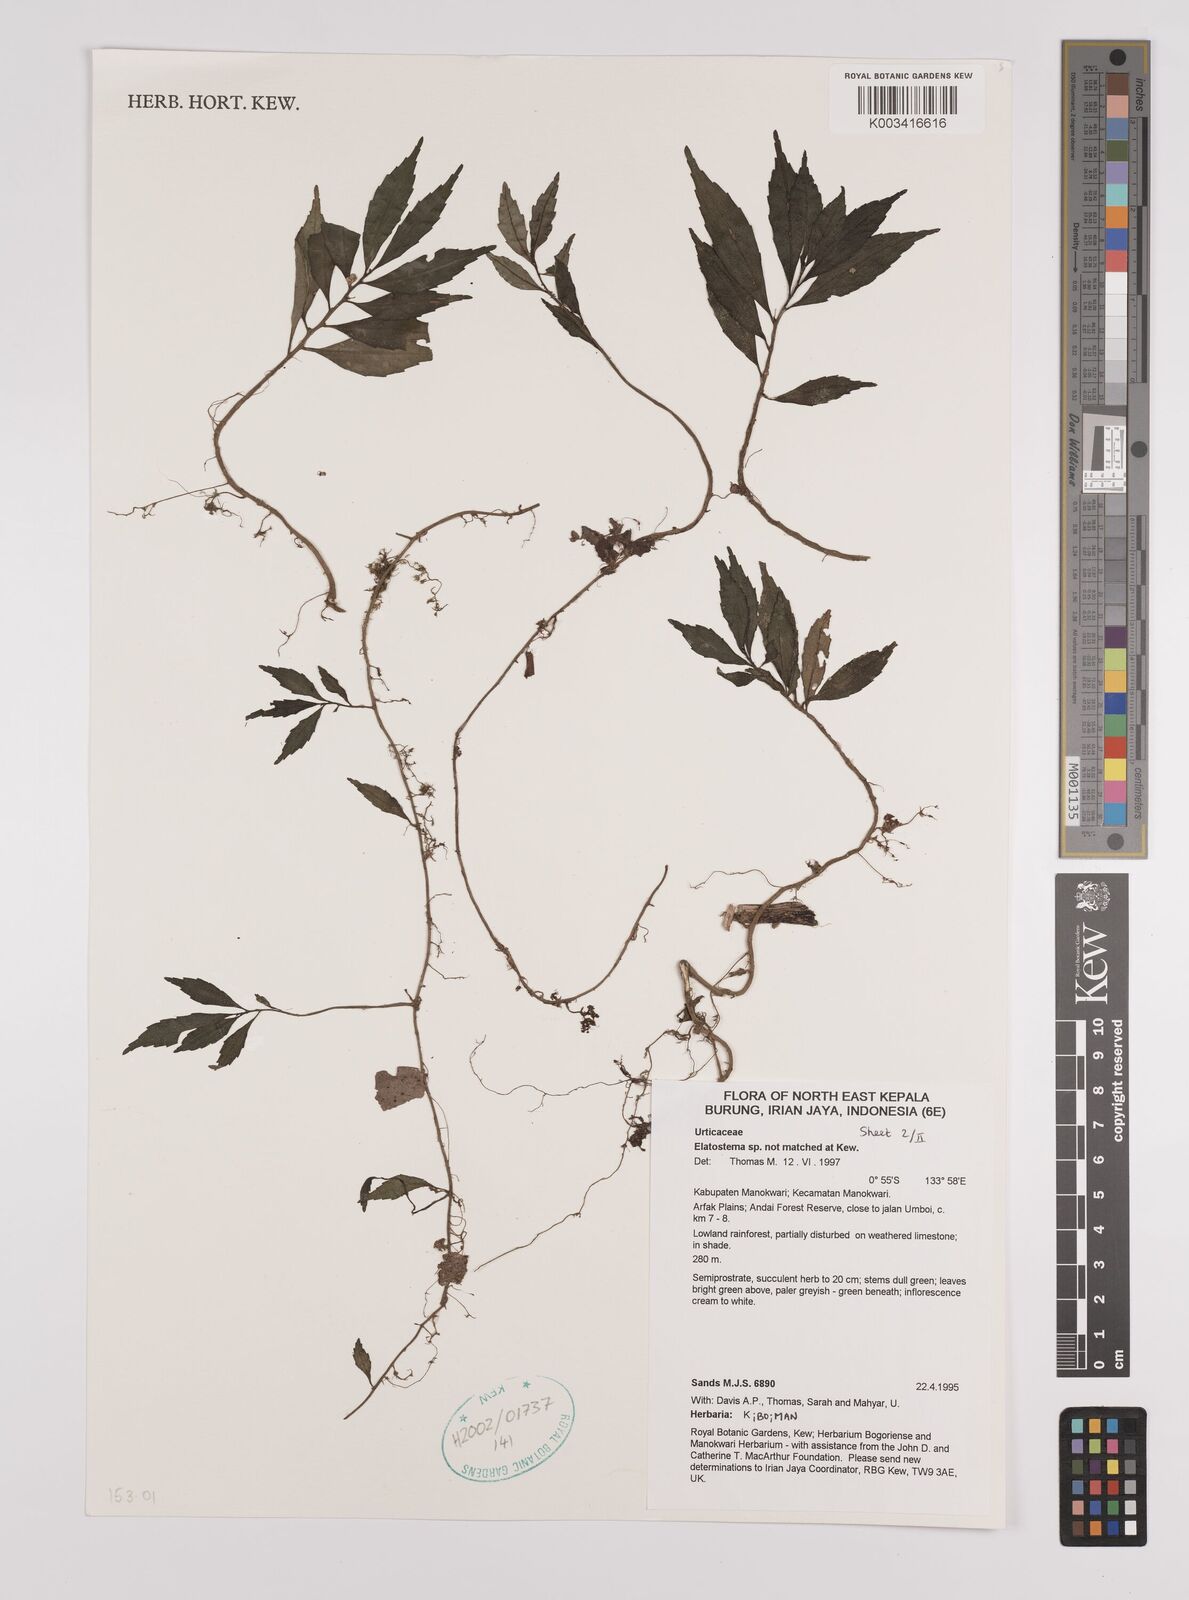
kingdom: Plantae
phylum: Tracheophyta
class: Magnoliopsida
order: Rosales
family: Urticaceae
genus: Elatostema
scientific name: Elatostema
